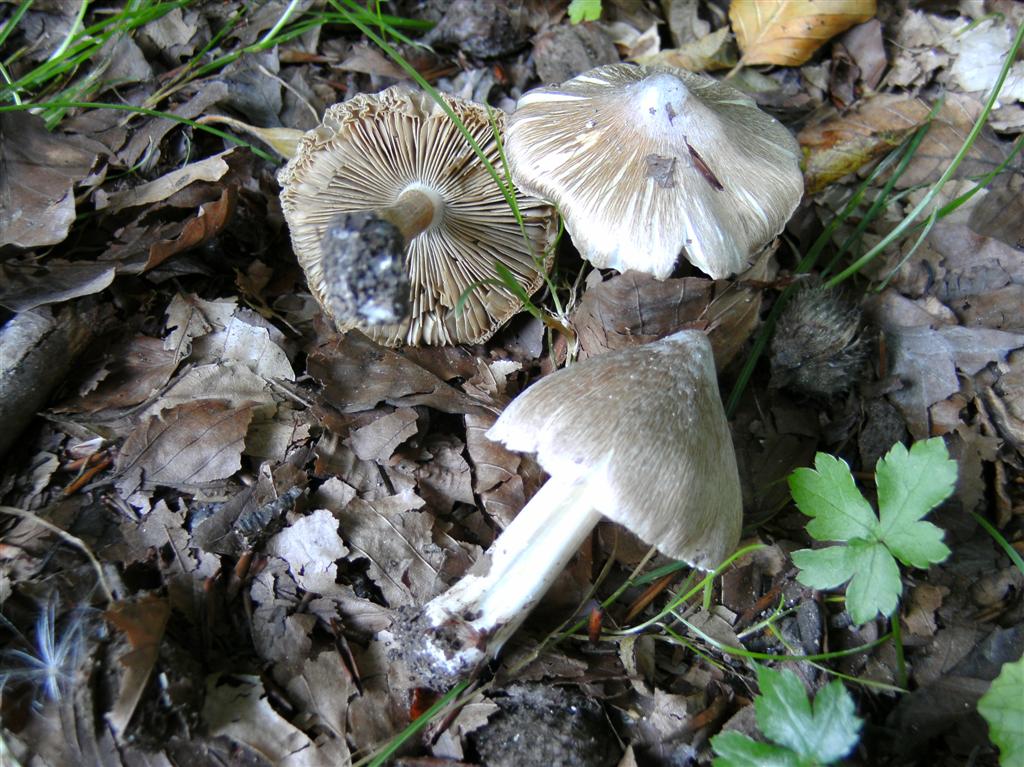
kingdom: Fungi
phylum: Basidiomycota
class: Agaricomycetes
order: Agaricales
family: Inocybaceae
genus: Inosperma
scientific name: Inosperma
